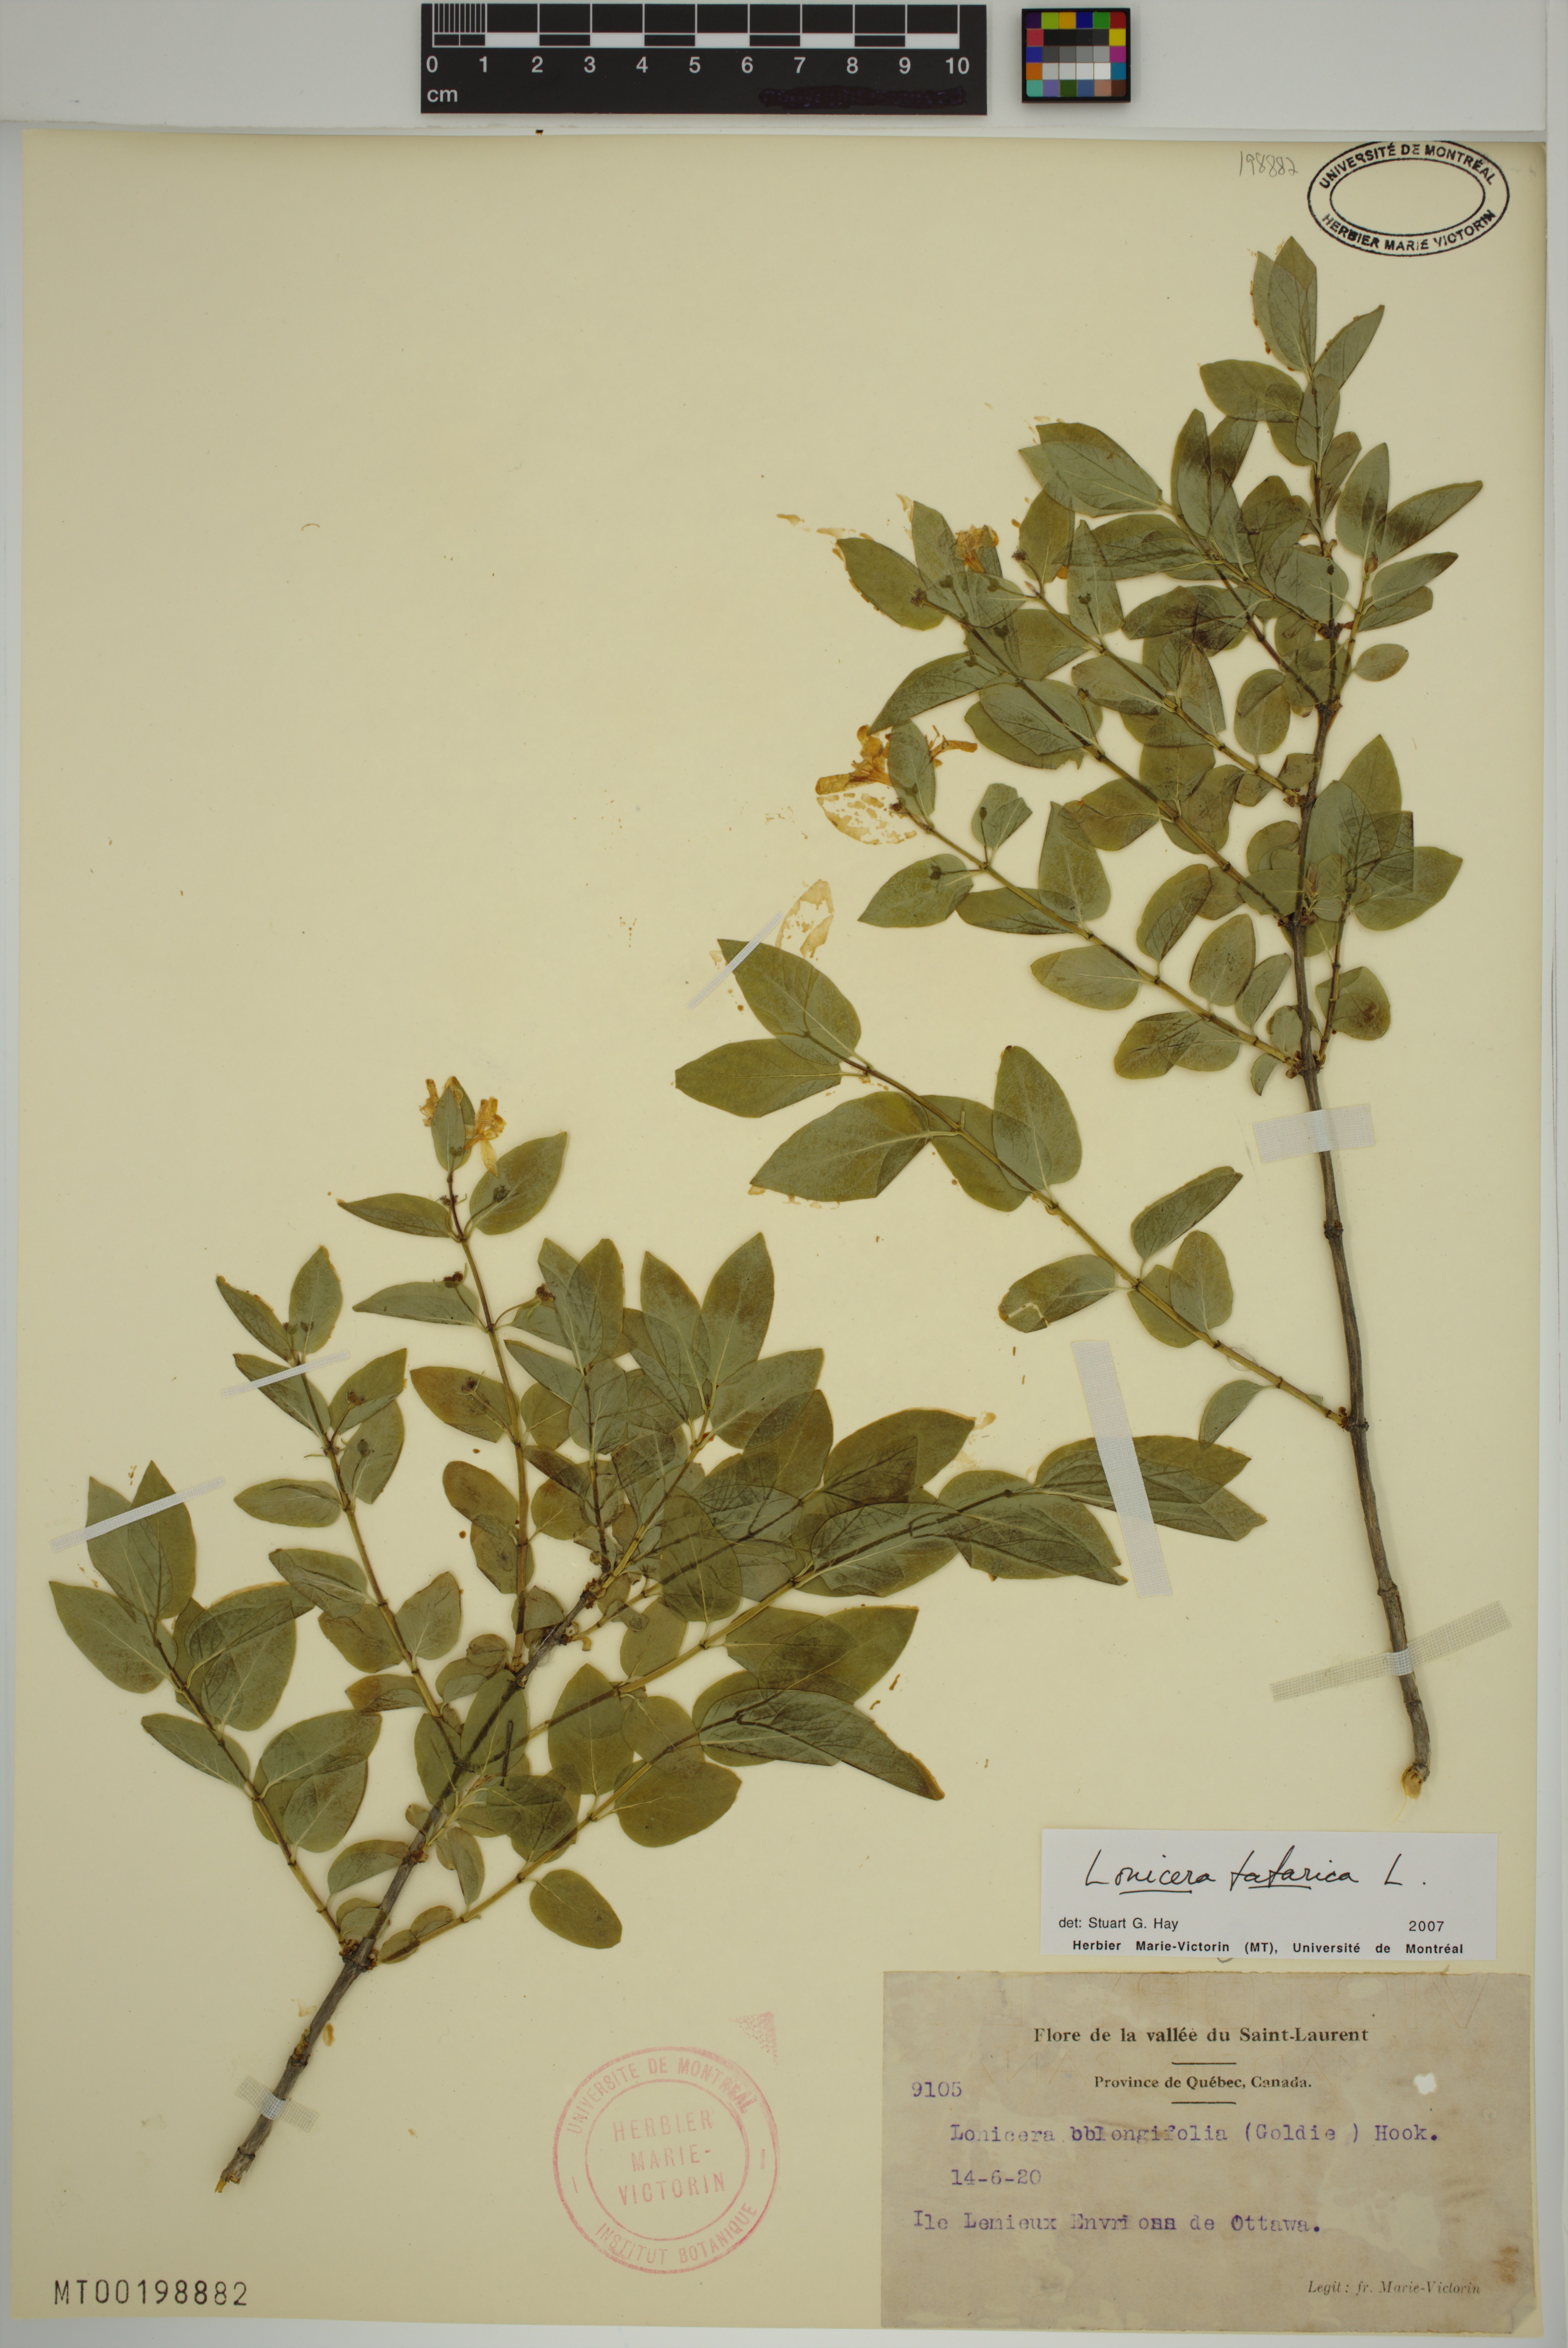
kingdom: Plantae
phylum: Tracheophyta
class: Magnoliopsida
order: Dipsacales
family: Caprifoliaceae
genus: Lonicera
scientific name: Lonicera tatarica
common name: Tatarian honeysuckle
